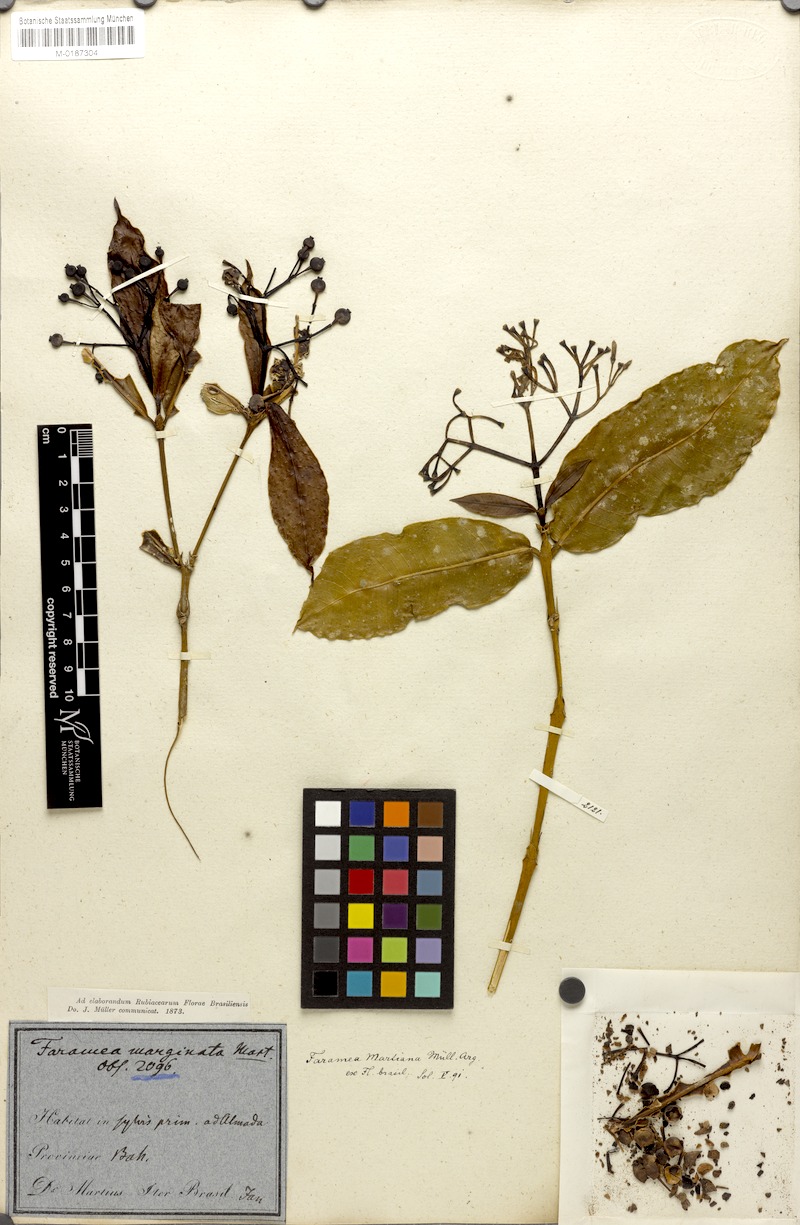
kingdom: Plantae
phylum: Tracheophyta
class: Magnoliopsida
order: Gentianales
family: Rubiaceae
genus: Faramea
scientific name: Faramea martiana
